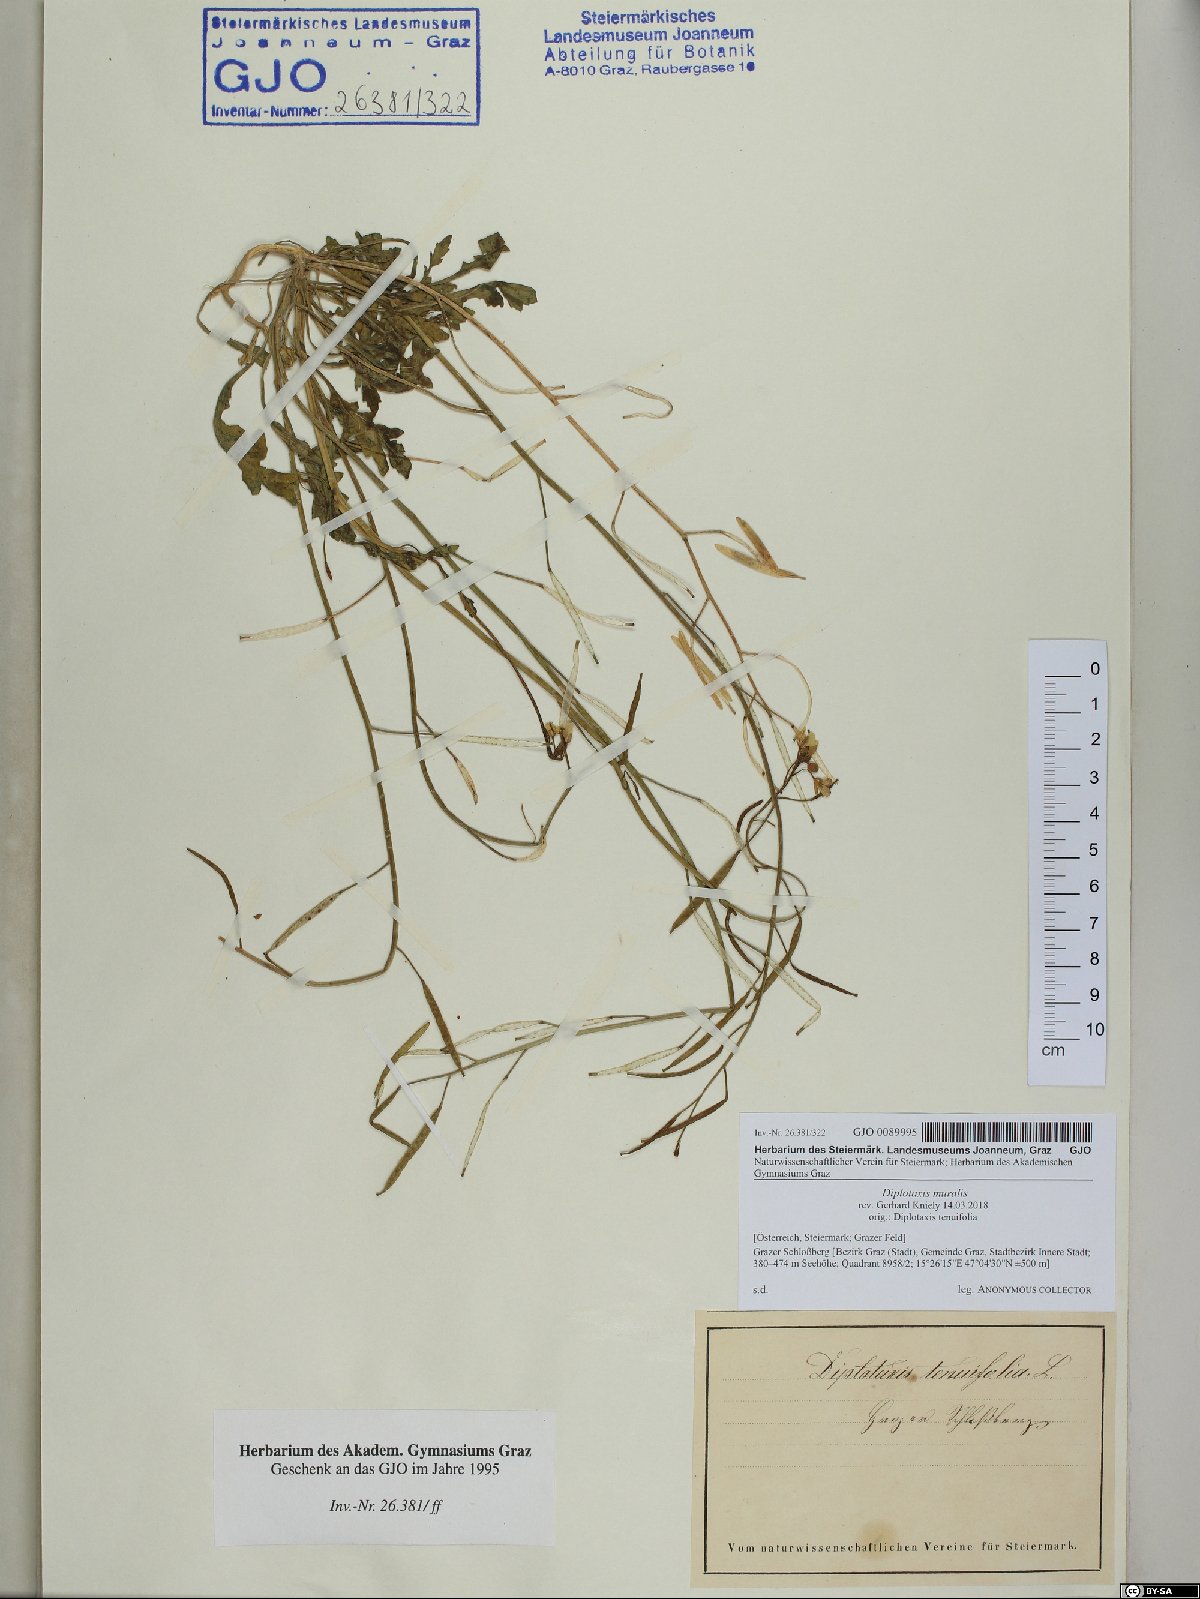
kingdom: Plantae
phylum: Tracheophyta
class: Magnoliopsida
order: Brassicales
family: Brassicaceae
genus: Diplotaxis
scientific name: Diplotaxis muralis
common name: Annual wall-rocket
